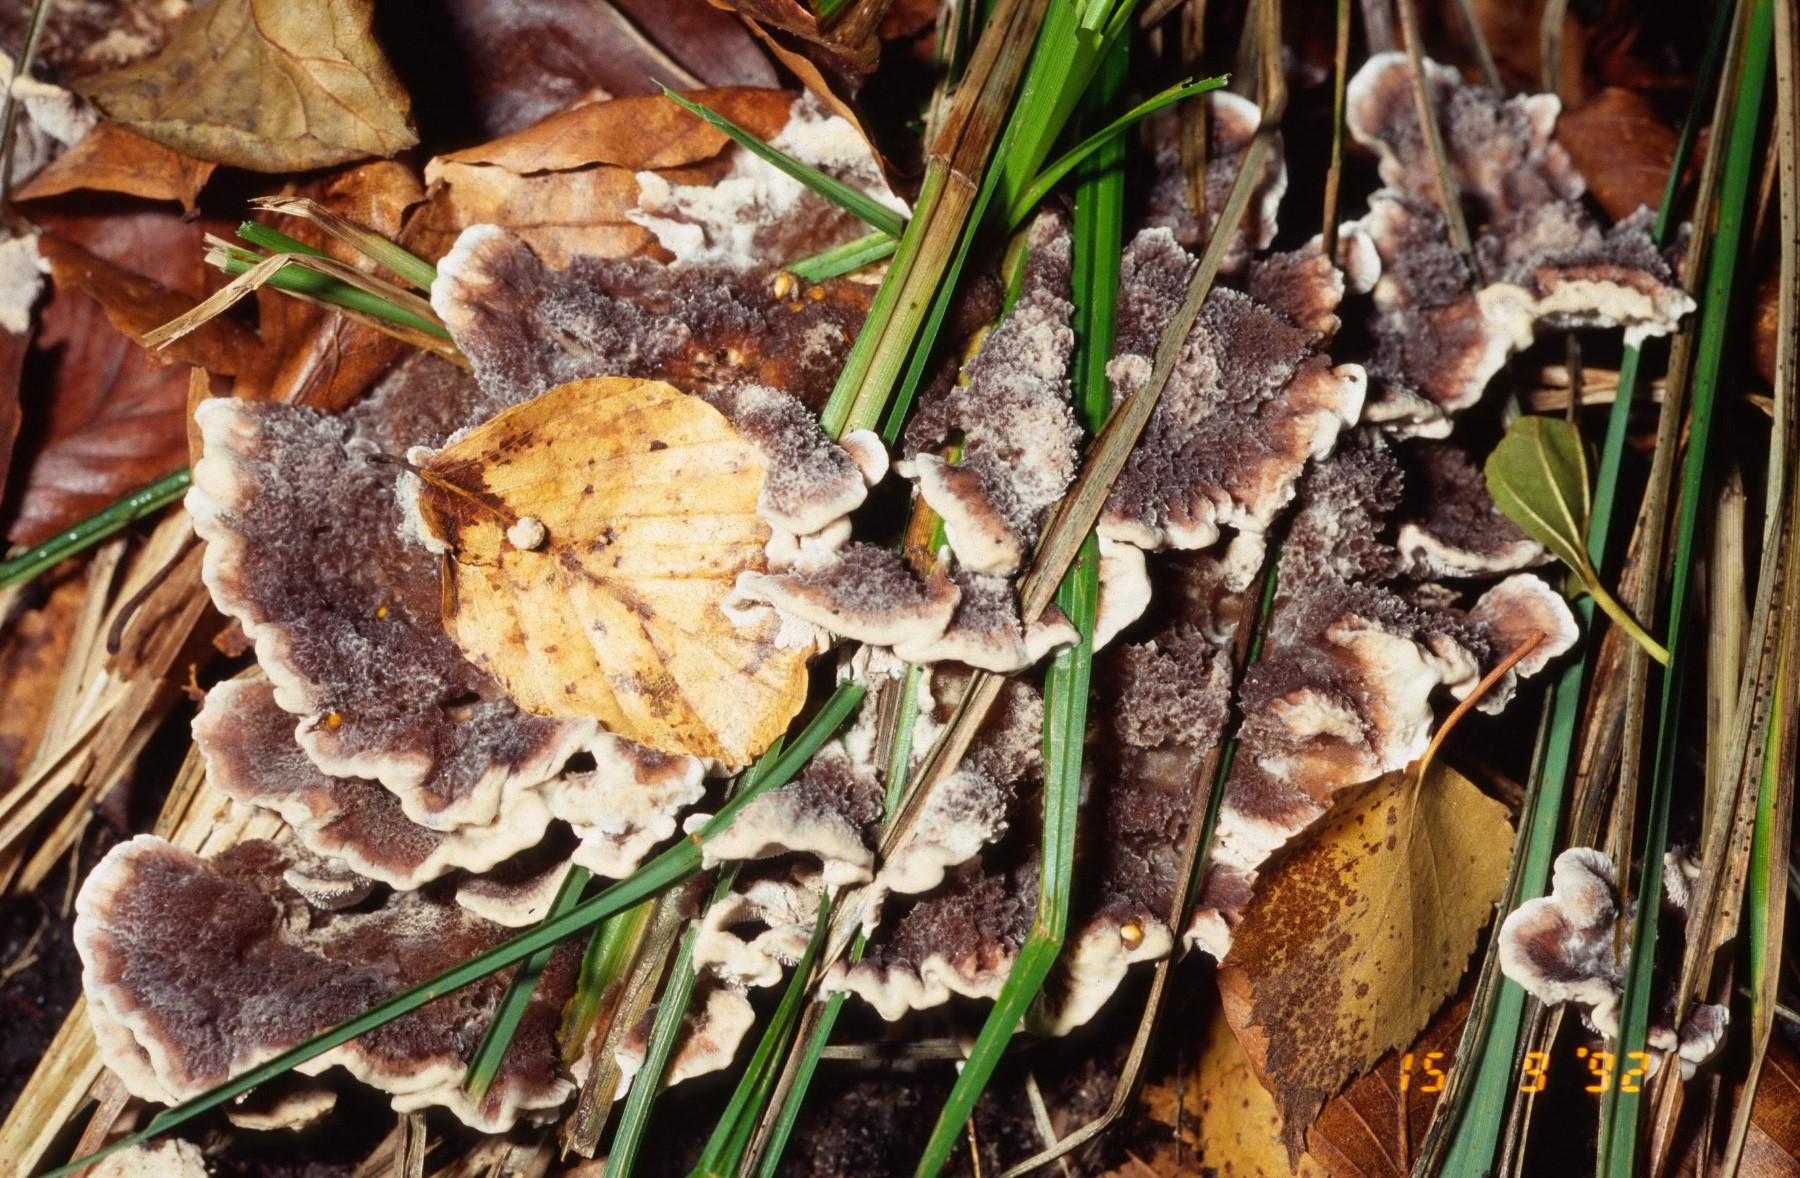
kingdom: Fungi
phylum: Basidiomycota
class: Agaricomycetes
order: Thelephorales
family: Thelephoraceae
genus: Phellodon
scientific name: Phellodon tomentosus
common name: vellugtende duftpigsvamp
